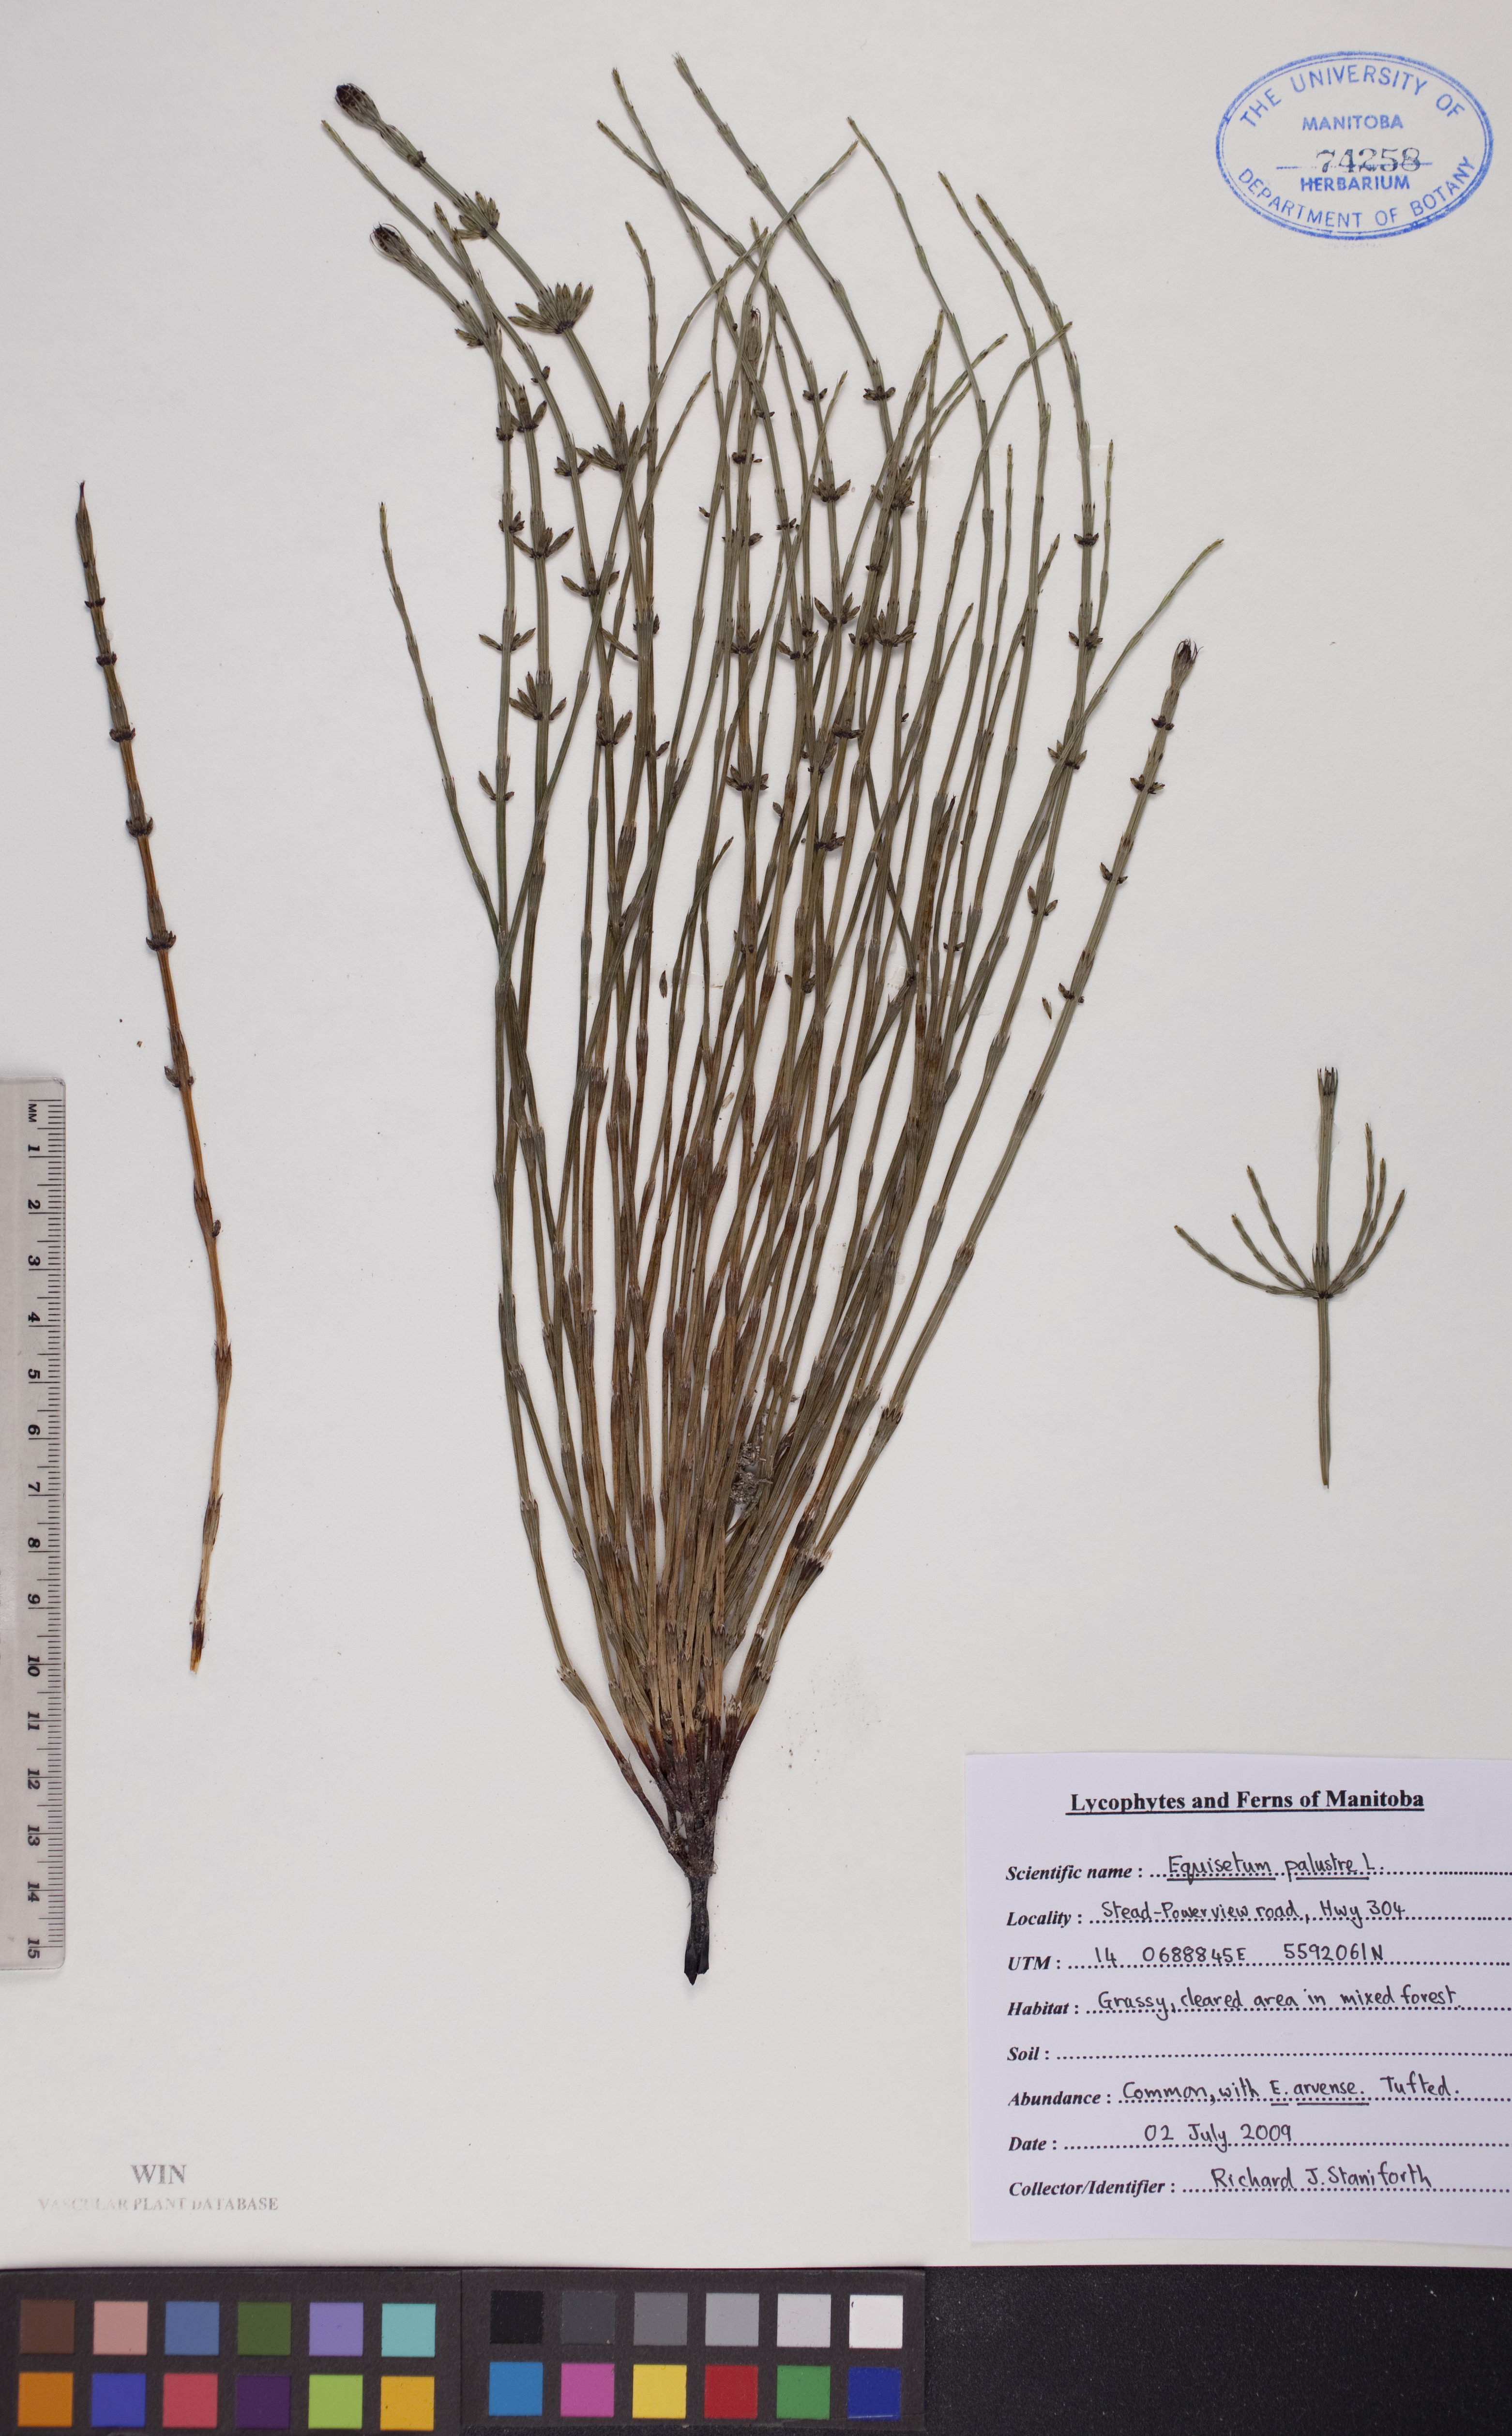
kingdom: Plantae
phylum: Tracheophyta
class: Polypodiopsida
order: Equisetales
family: Equisetaceae
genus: Equisetum
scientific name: Equisetum palustre
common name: Marsh horsetail
